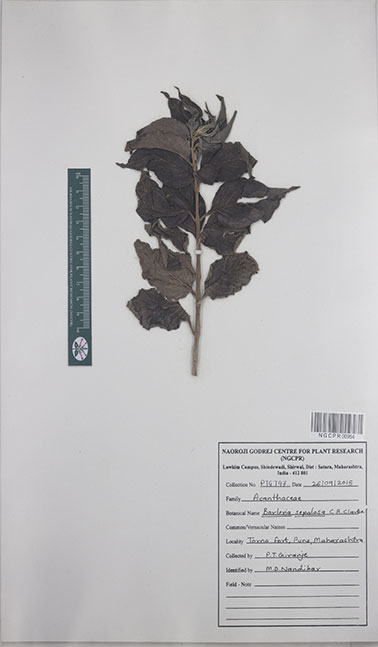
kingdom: Plantae
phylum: Tracheophyta
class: Magnoliopsida
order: Lamiales
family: Acanthaceae
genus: Barleria
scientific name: Barleria lawii
